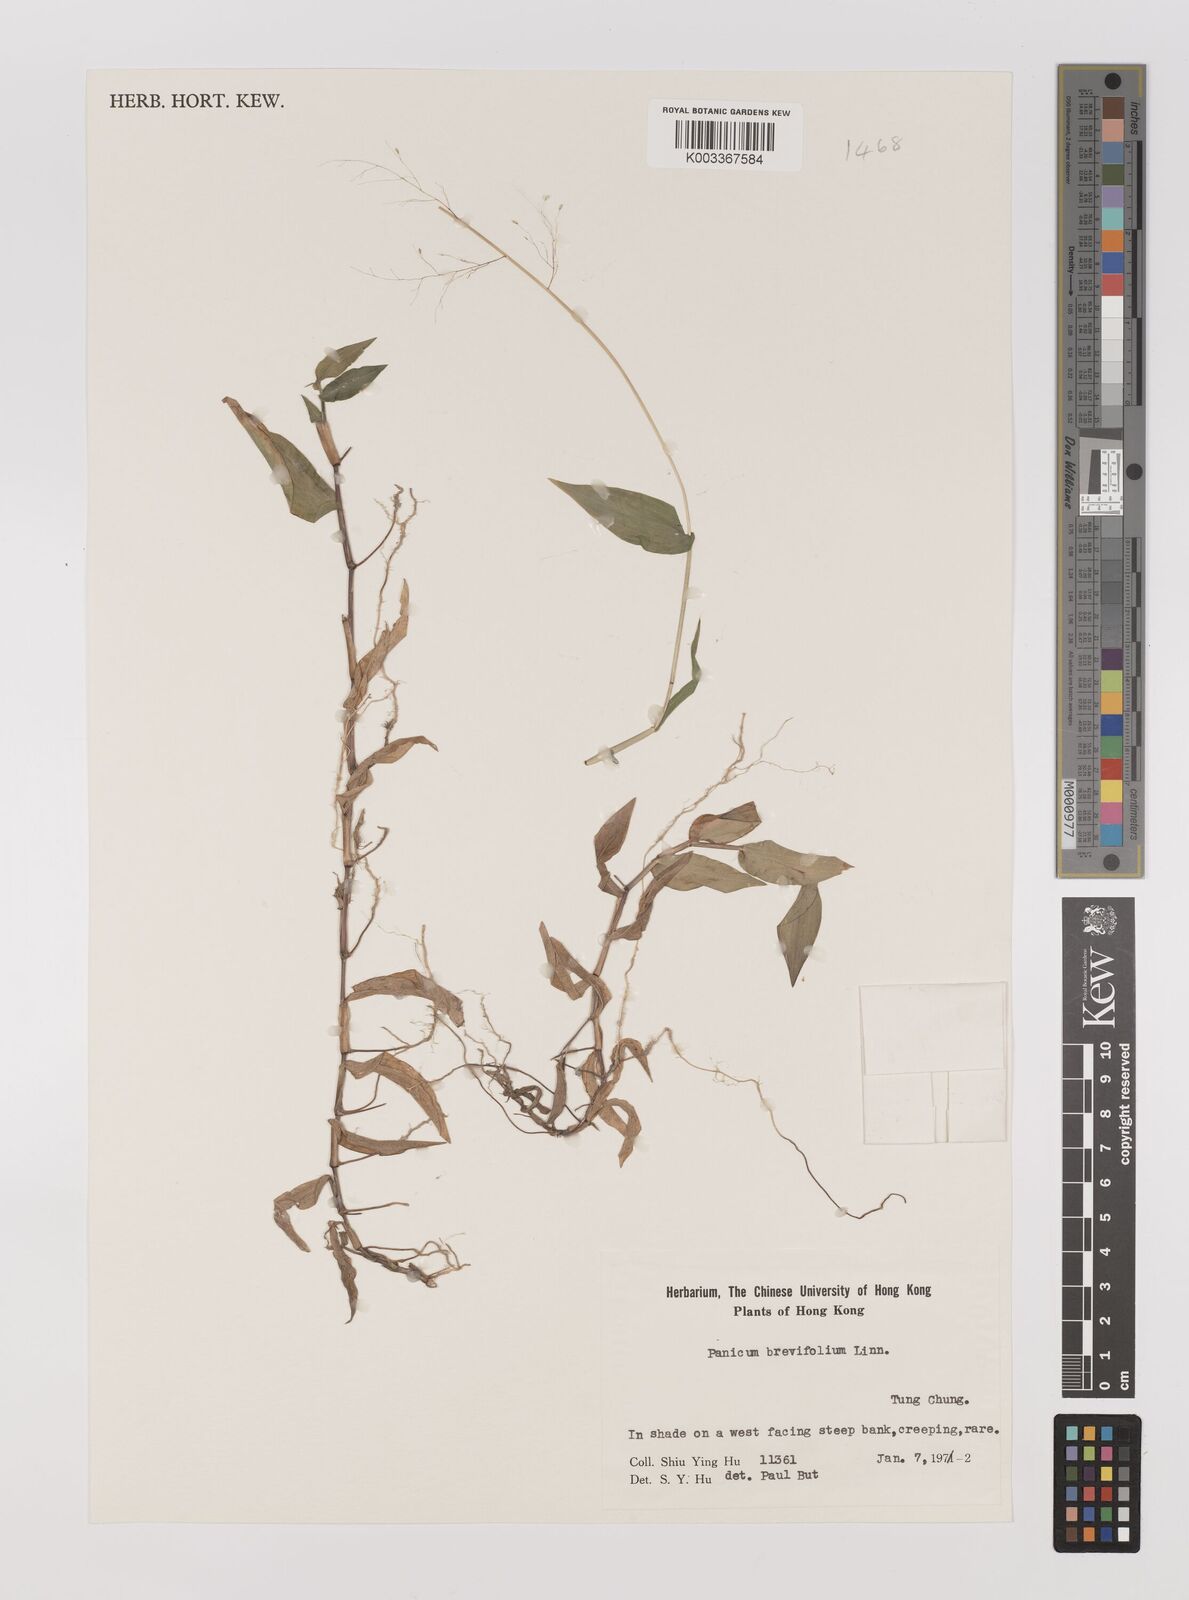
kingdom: Plantae
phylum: Tracheophyta
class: Liliopsida
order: Poales
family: Poaceae
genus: Panicum
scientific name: Panicum brevifolium
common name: Shortleaf panic grass
